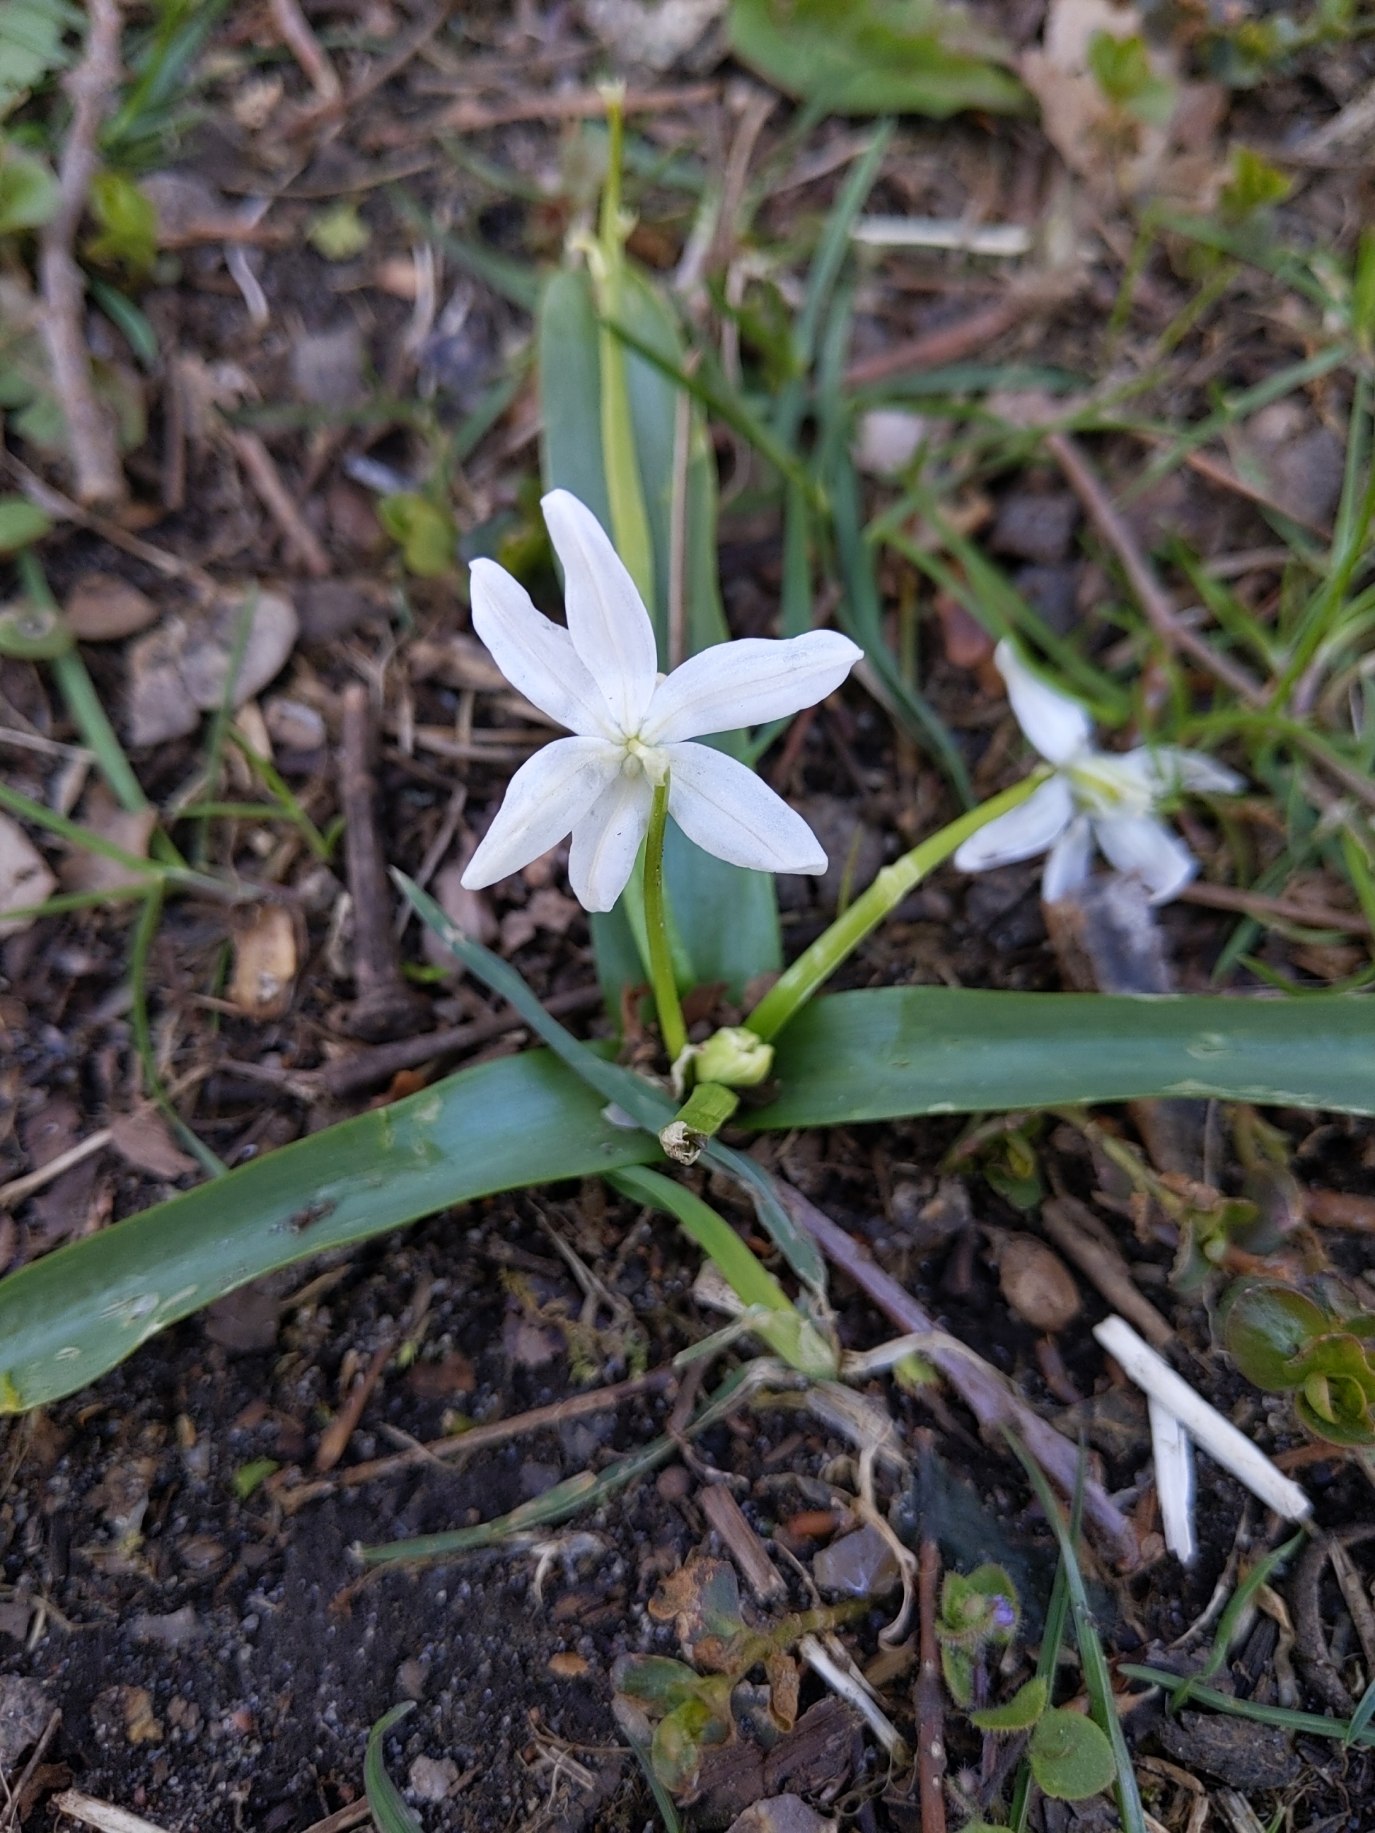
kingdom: Plantae
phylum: Tracheophyta
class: Liliopsida
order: Asparagales
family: Asparagaceae
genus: Scilla
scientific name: Scilla siberica
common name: Russisk skilla
